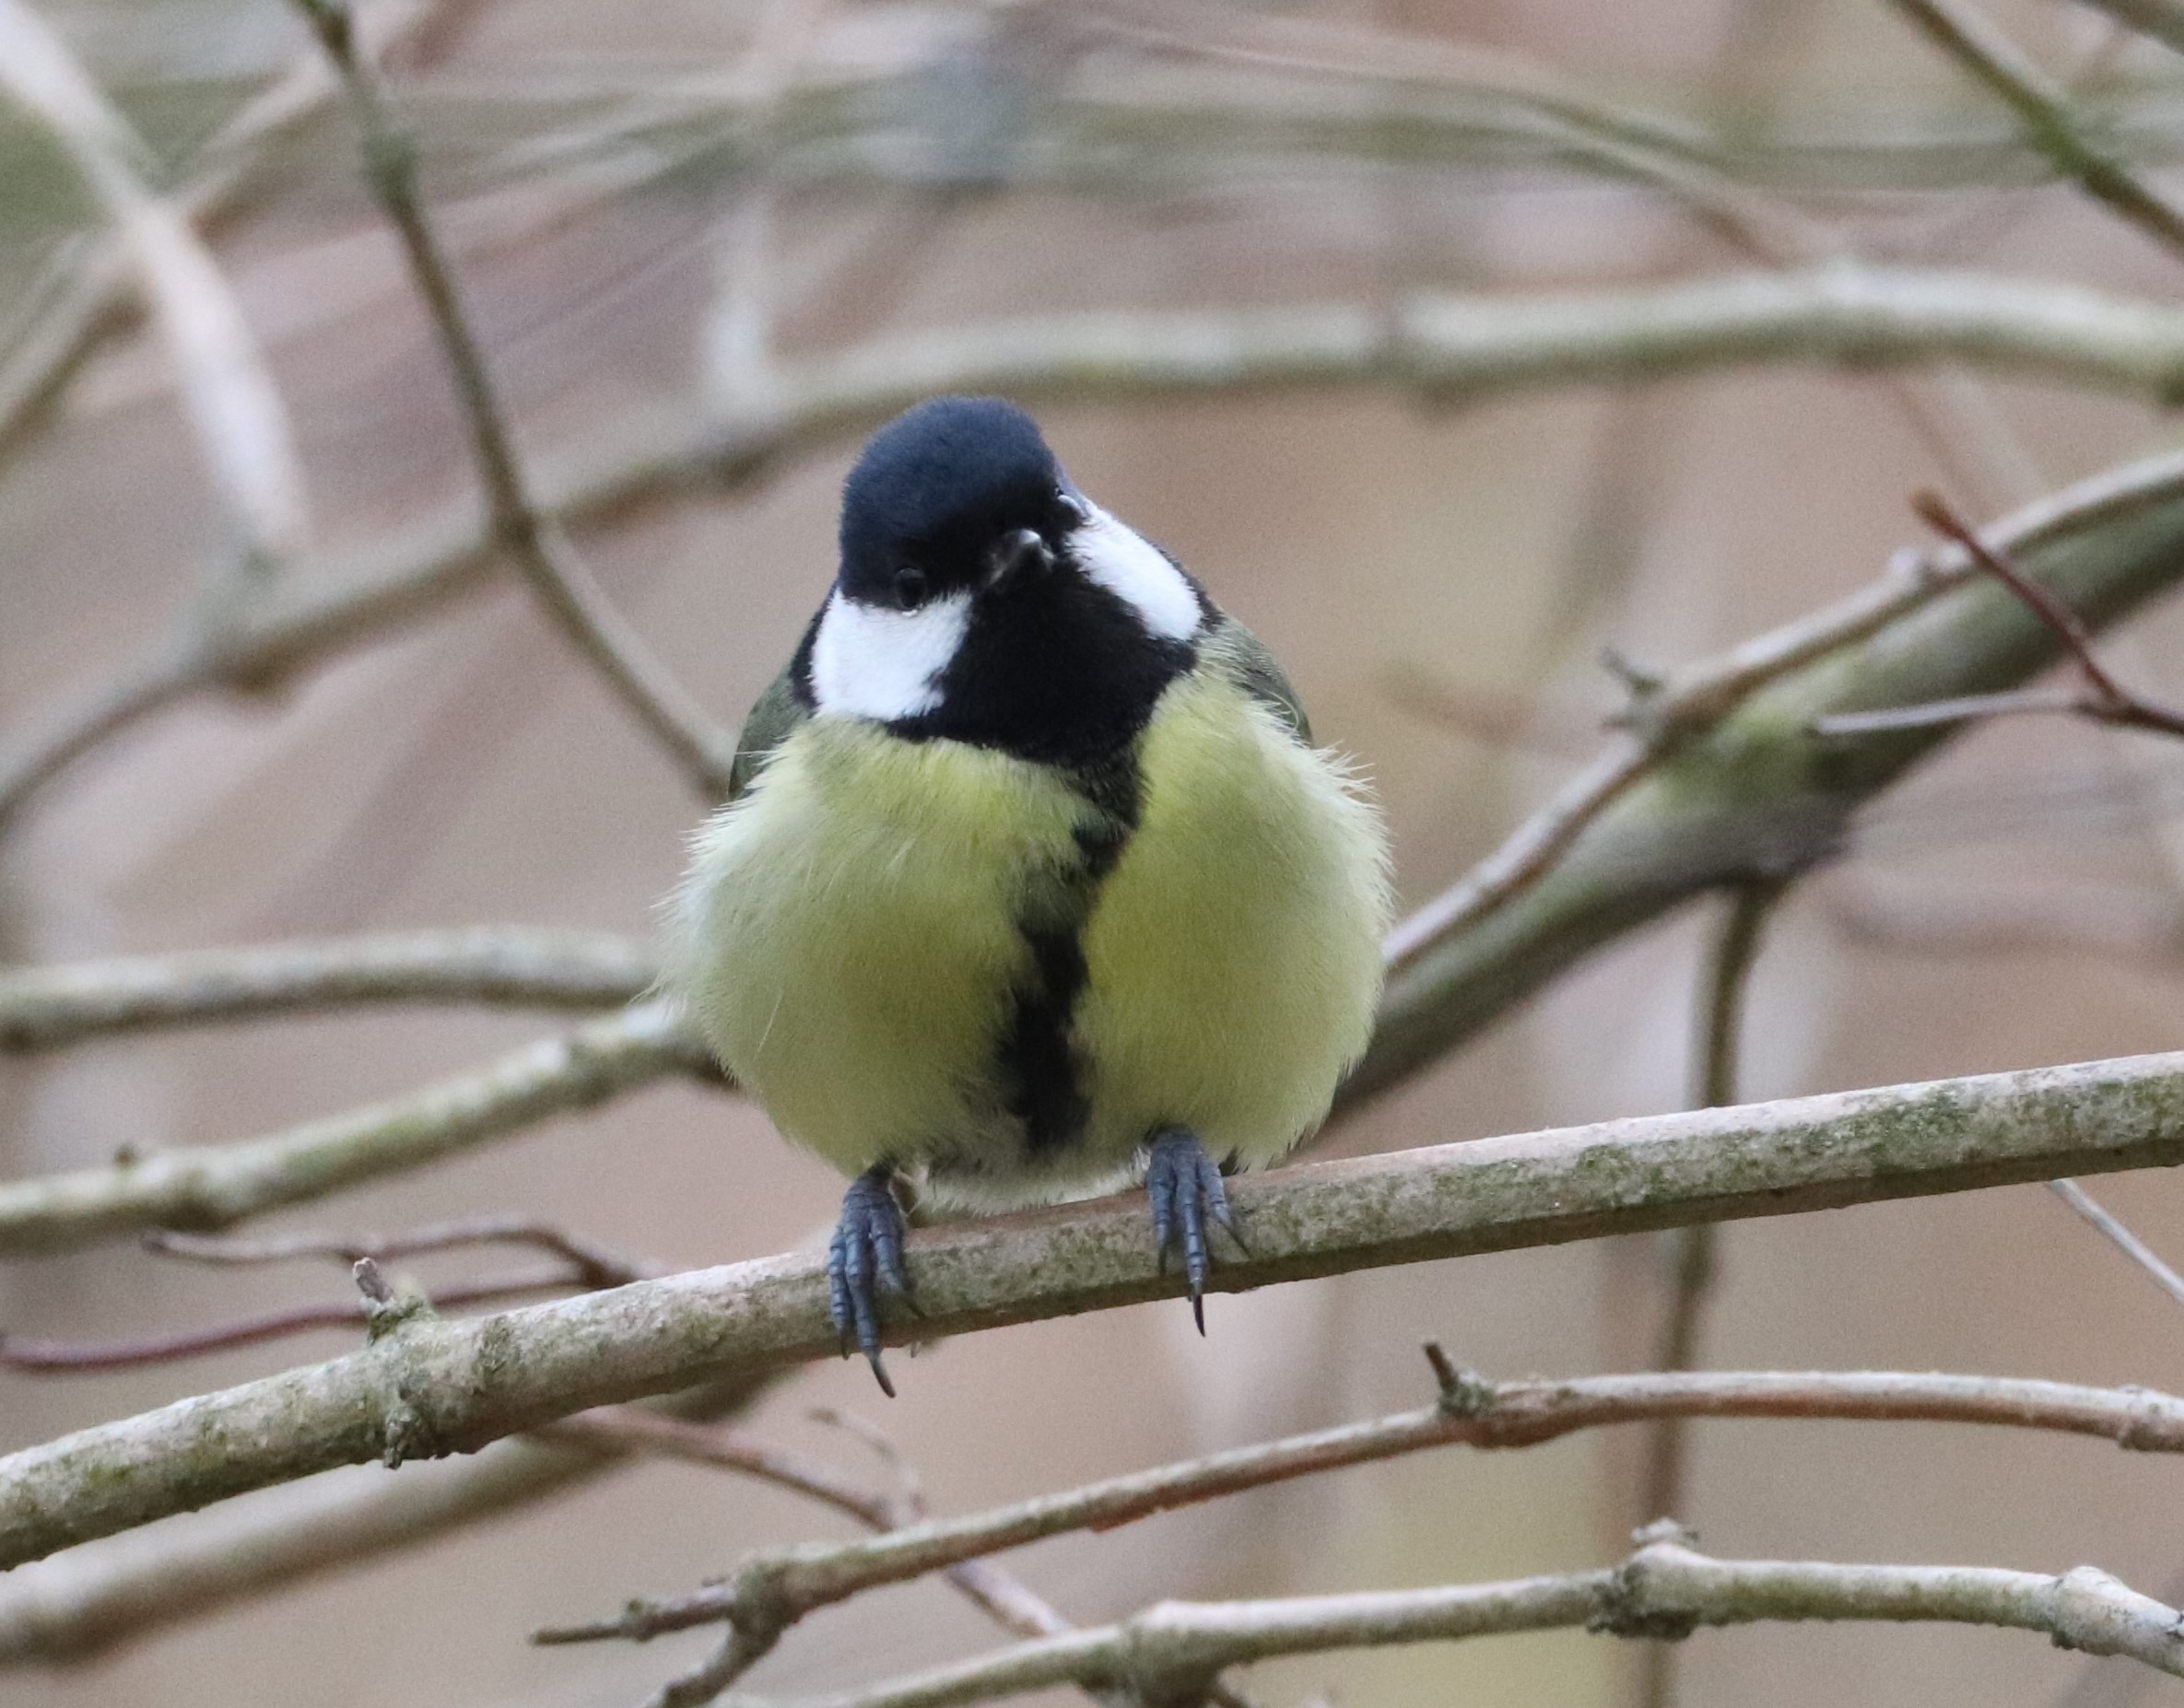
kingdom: Animalia
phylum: Chordata
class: Aves
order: Passeriformes
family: Paridae
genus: Parus
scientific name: Parus major
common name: Musvit
